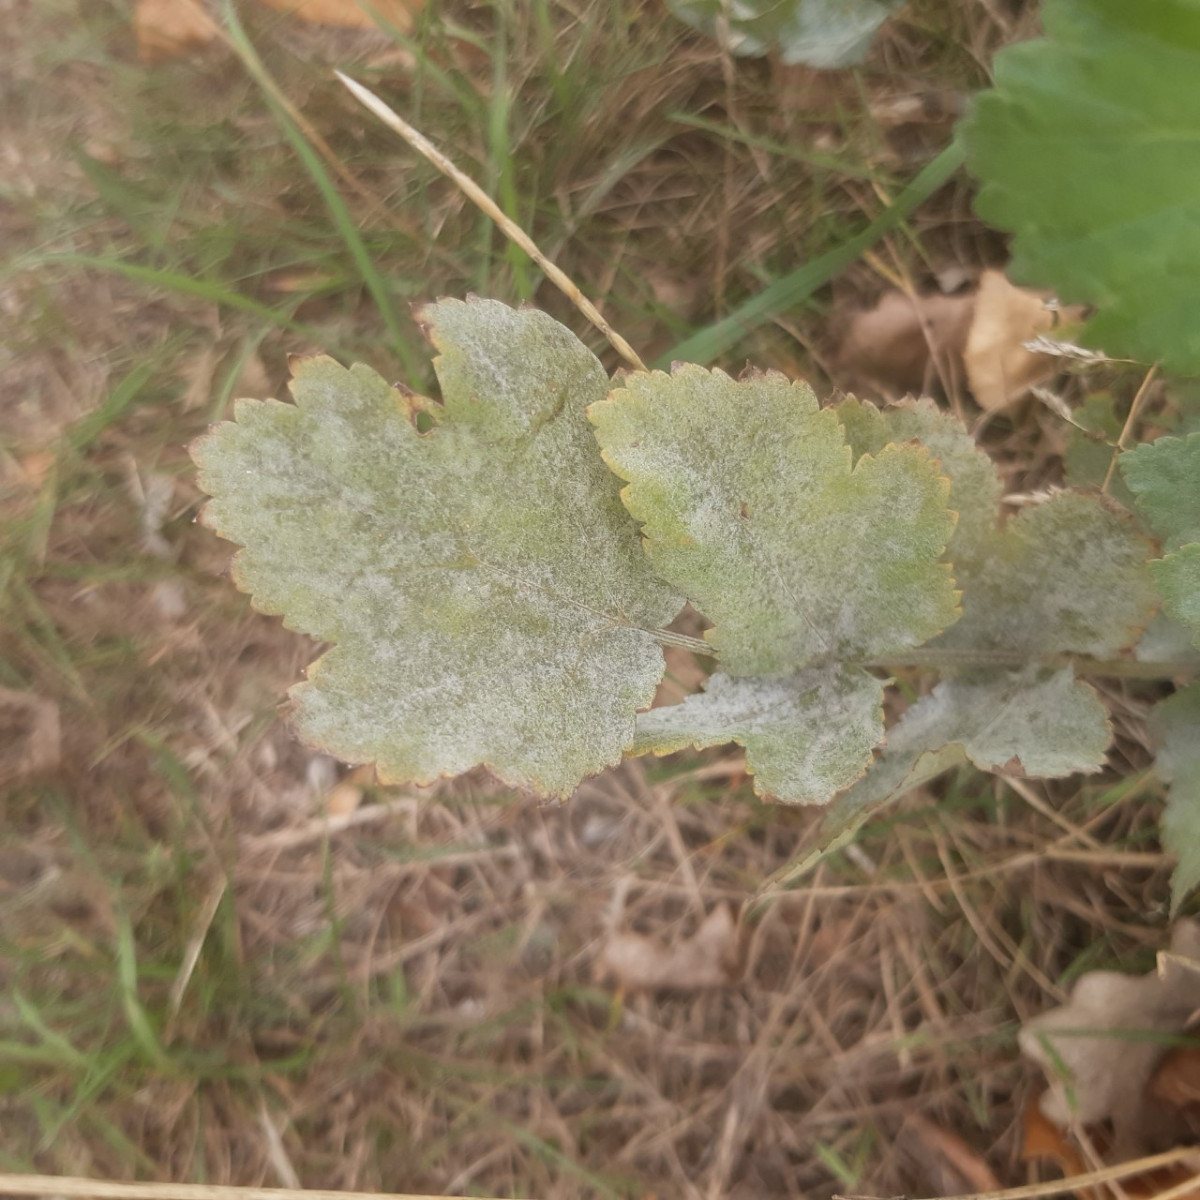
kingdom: Fungi
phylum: Ascomycota
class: Leotiomycetes
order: Helotiales
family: Erysiphaceae
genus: Erysiphe
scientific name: Erysiphe heraclei
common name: skærmplante-meldug
